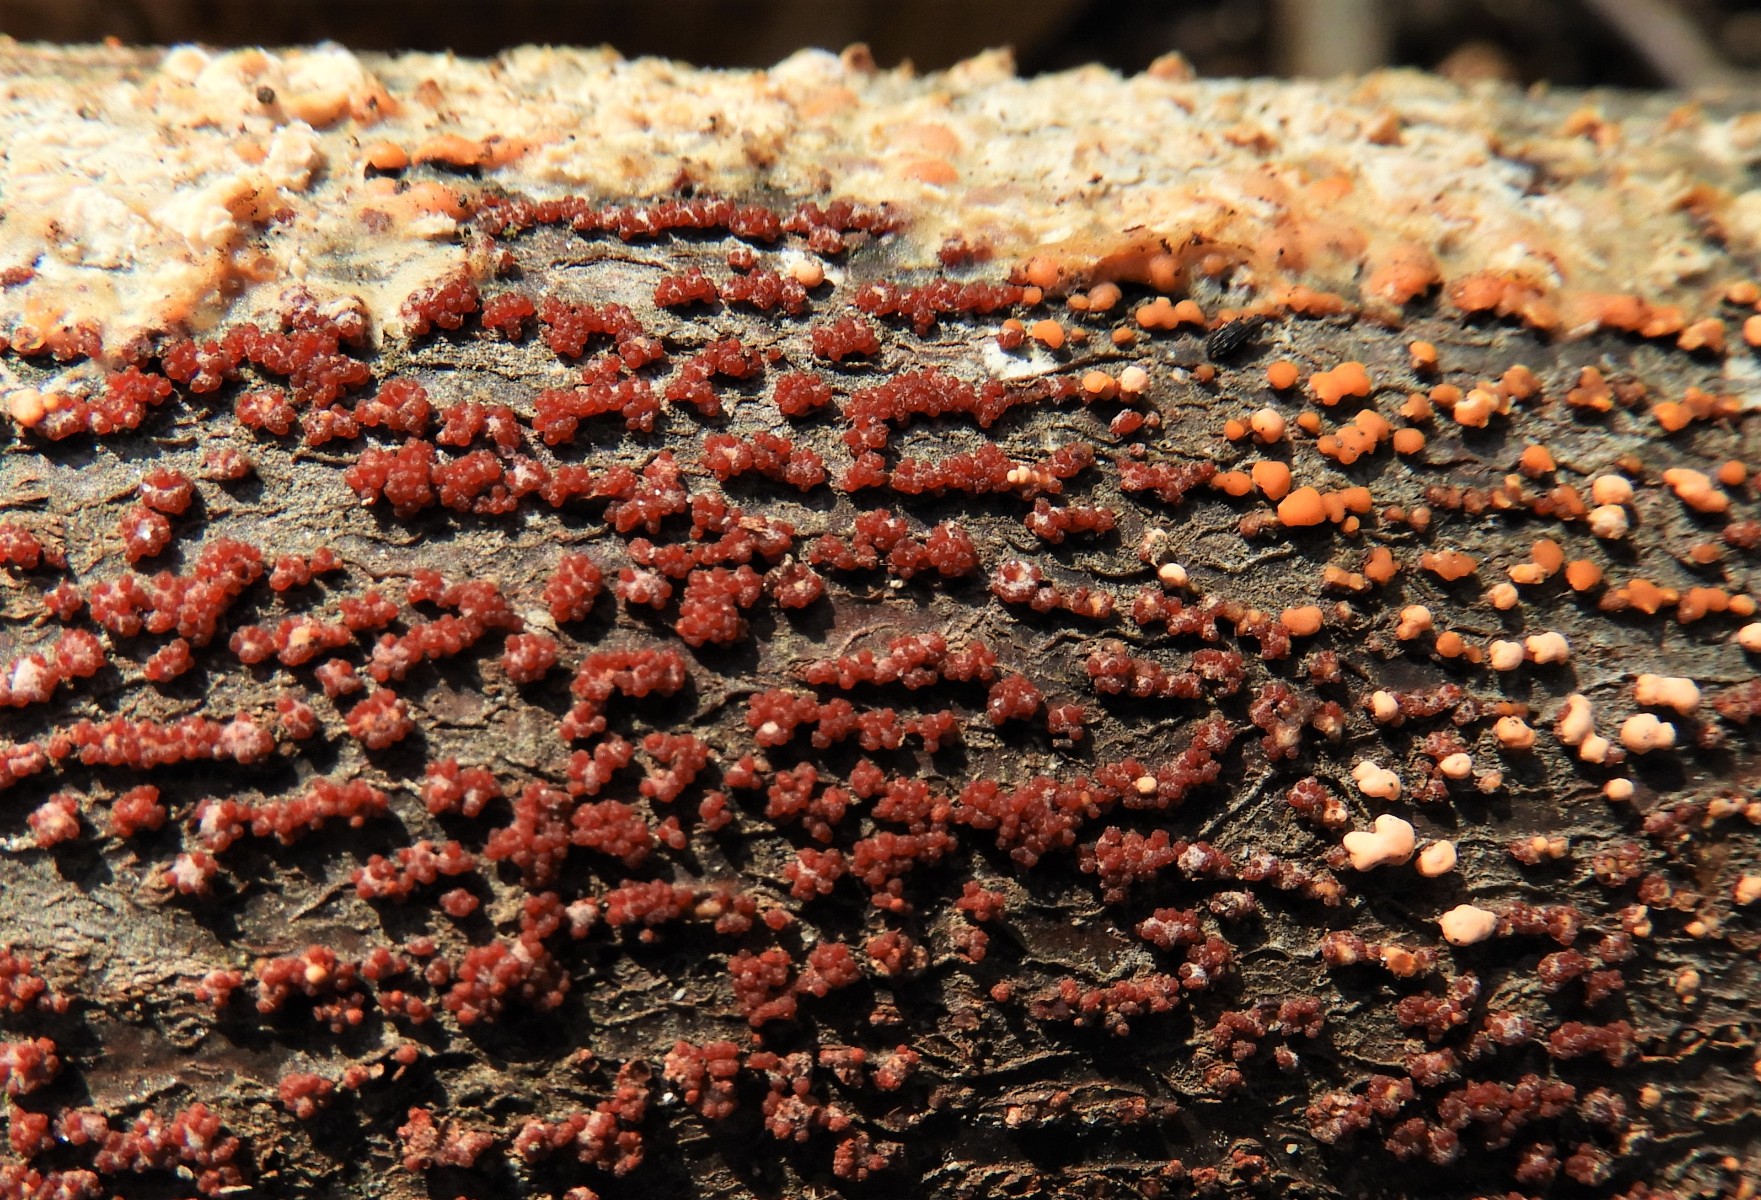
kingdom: Fungi
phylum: Ascomycota
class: Sordariomycetes
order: Hypocreales
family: Nectriaceae
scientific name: Nectriaceae
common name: cinnobersvampfamilien
